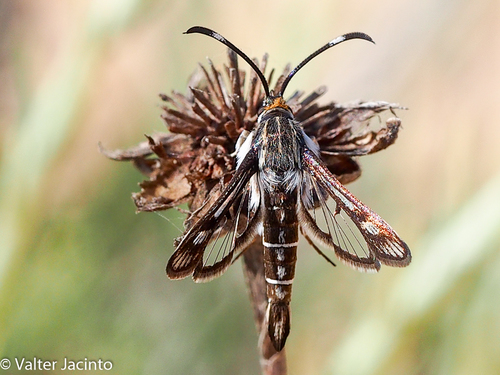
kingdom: Animalia
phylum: Arthropoda
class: Insecta
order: Lepidoptera
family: Sesiidae
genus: Pyropteron
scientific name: Pyropteron hispanica
